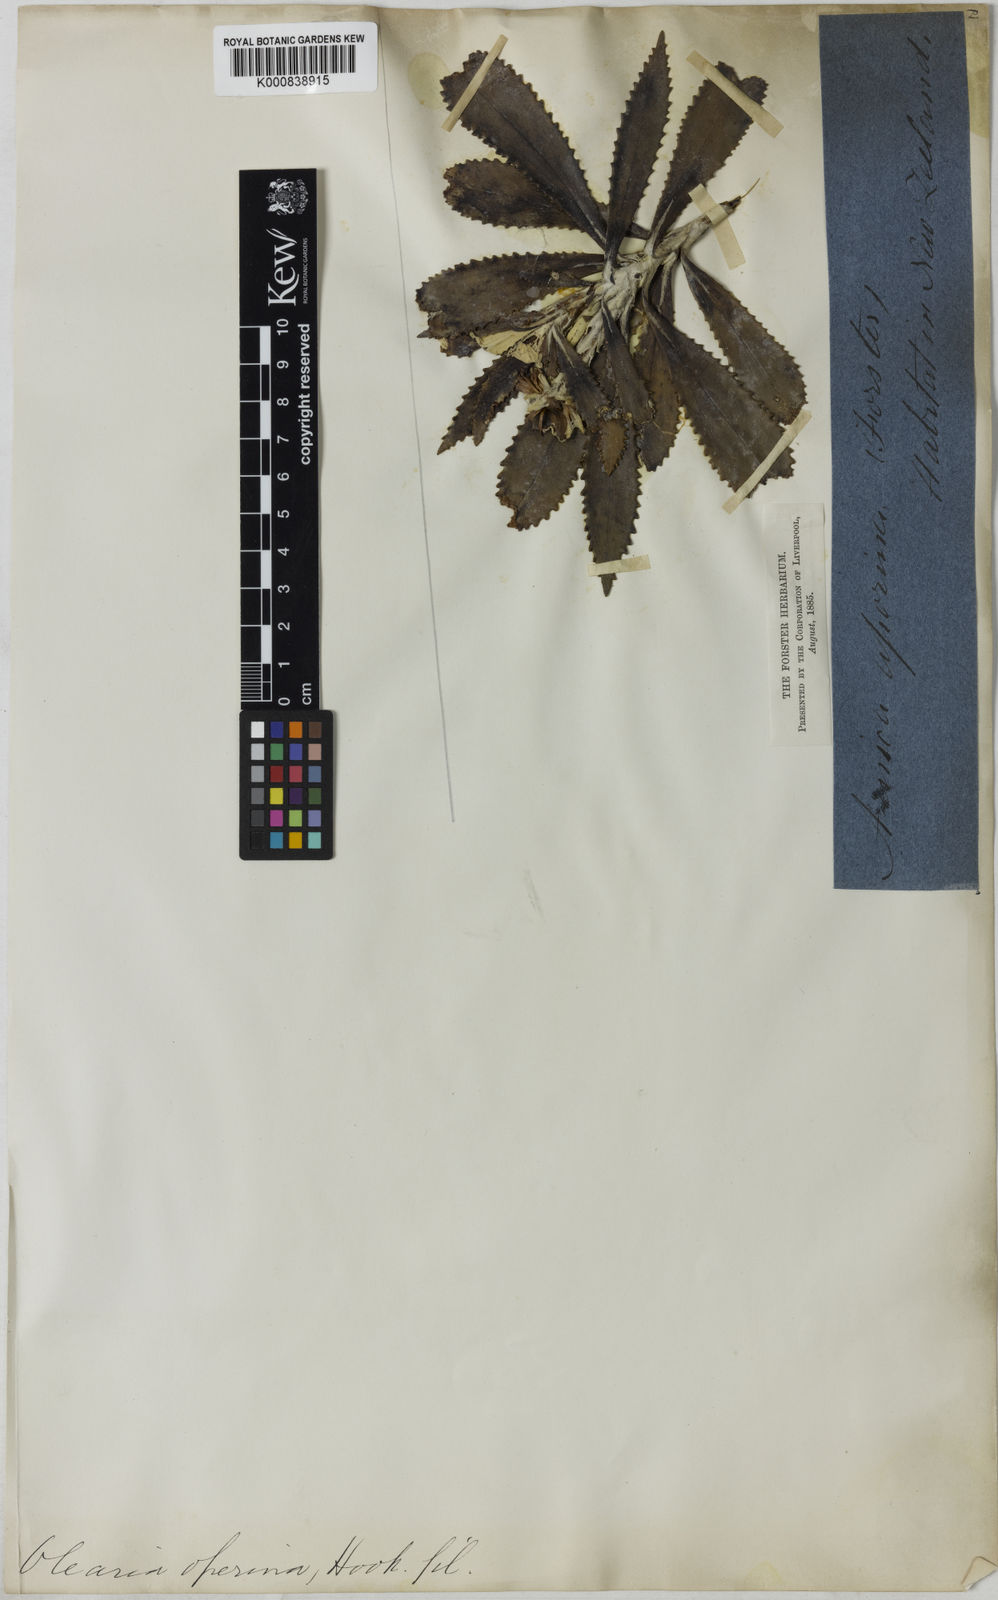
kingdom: Plantae
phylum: Tracheophyta
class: Magnoliopsida
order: Asterales
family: Asteraceae
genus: Olearia
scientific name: Olearia
